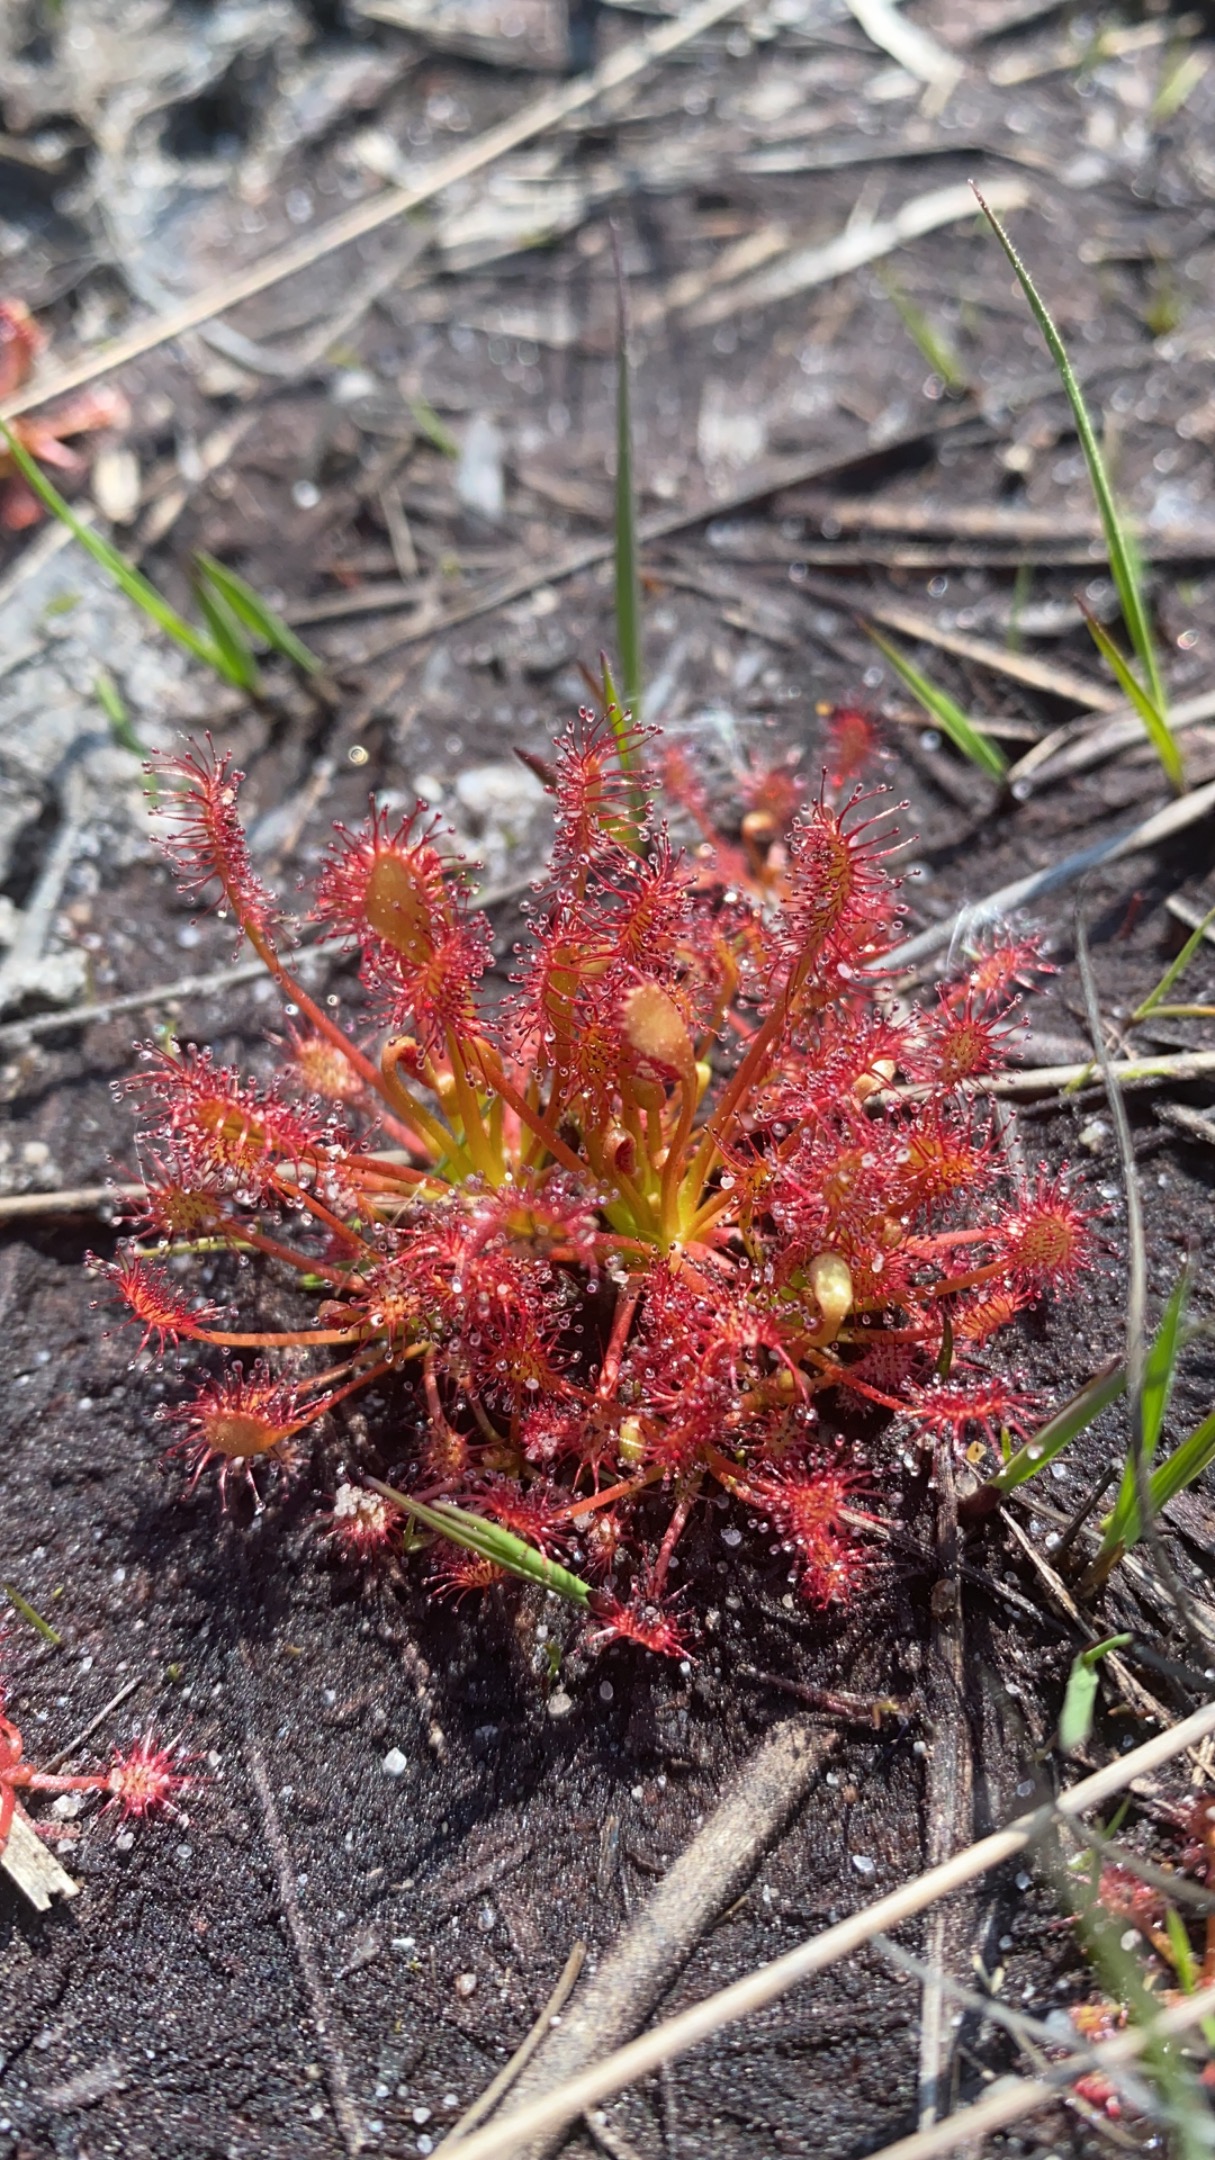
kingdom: Plantae
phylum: Tracheophyta
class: Magnoliopsida
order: Caryophyllales
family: Droseraceae
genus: Drosera
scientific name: Drosera intermedia
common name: Liden soldug
